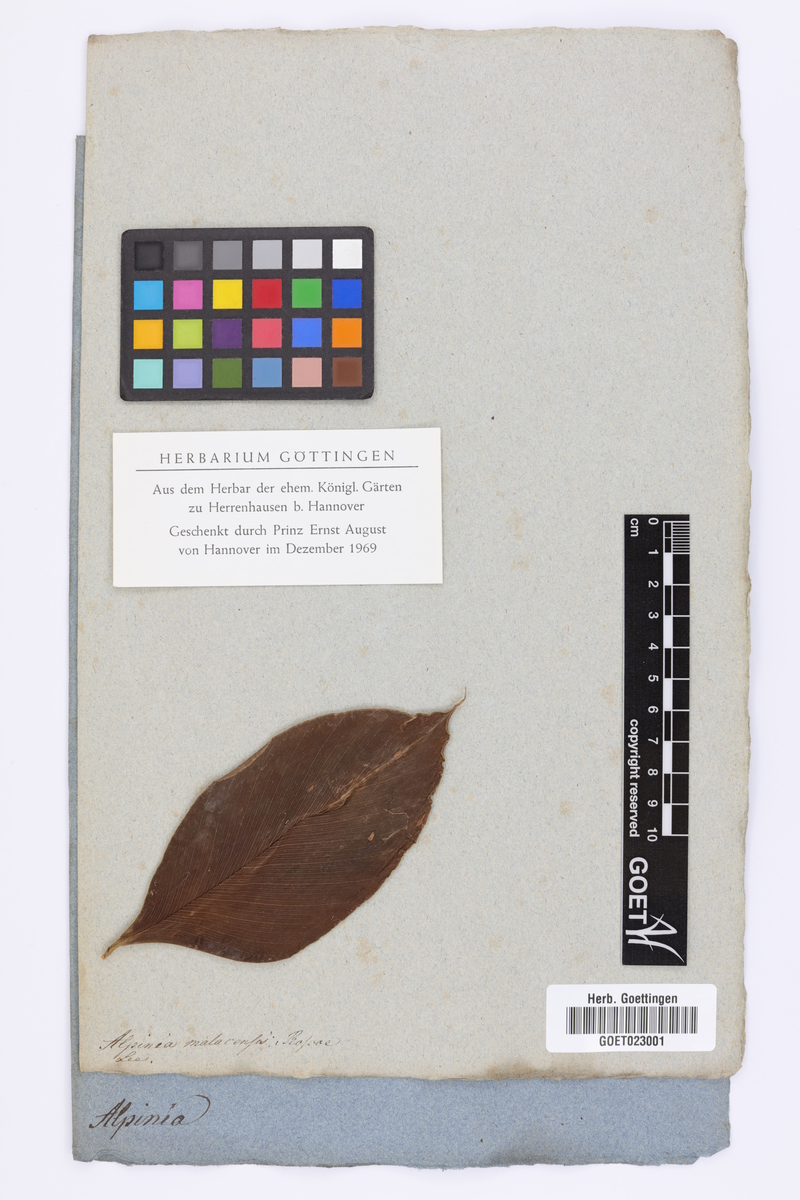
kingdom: Plantae
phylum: Tracheophyta
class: Liliopsida
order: Zingiberales
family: Zingiberaceae
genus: Alpinia
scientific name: Alpinia malaccensis
